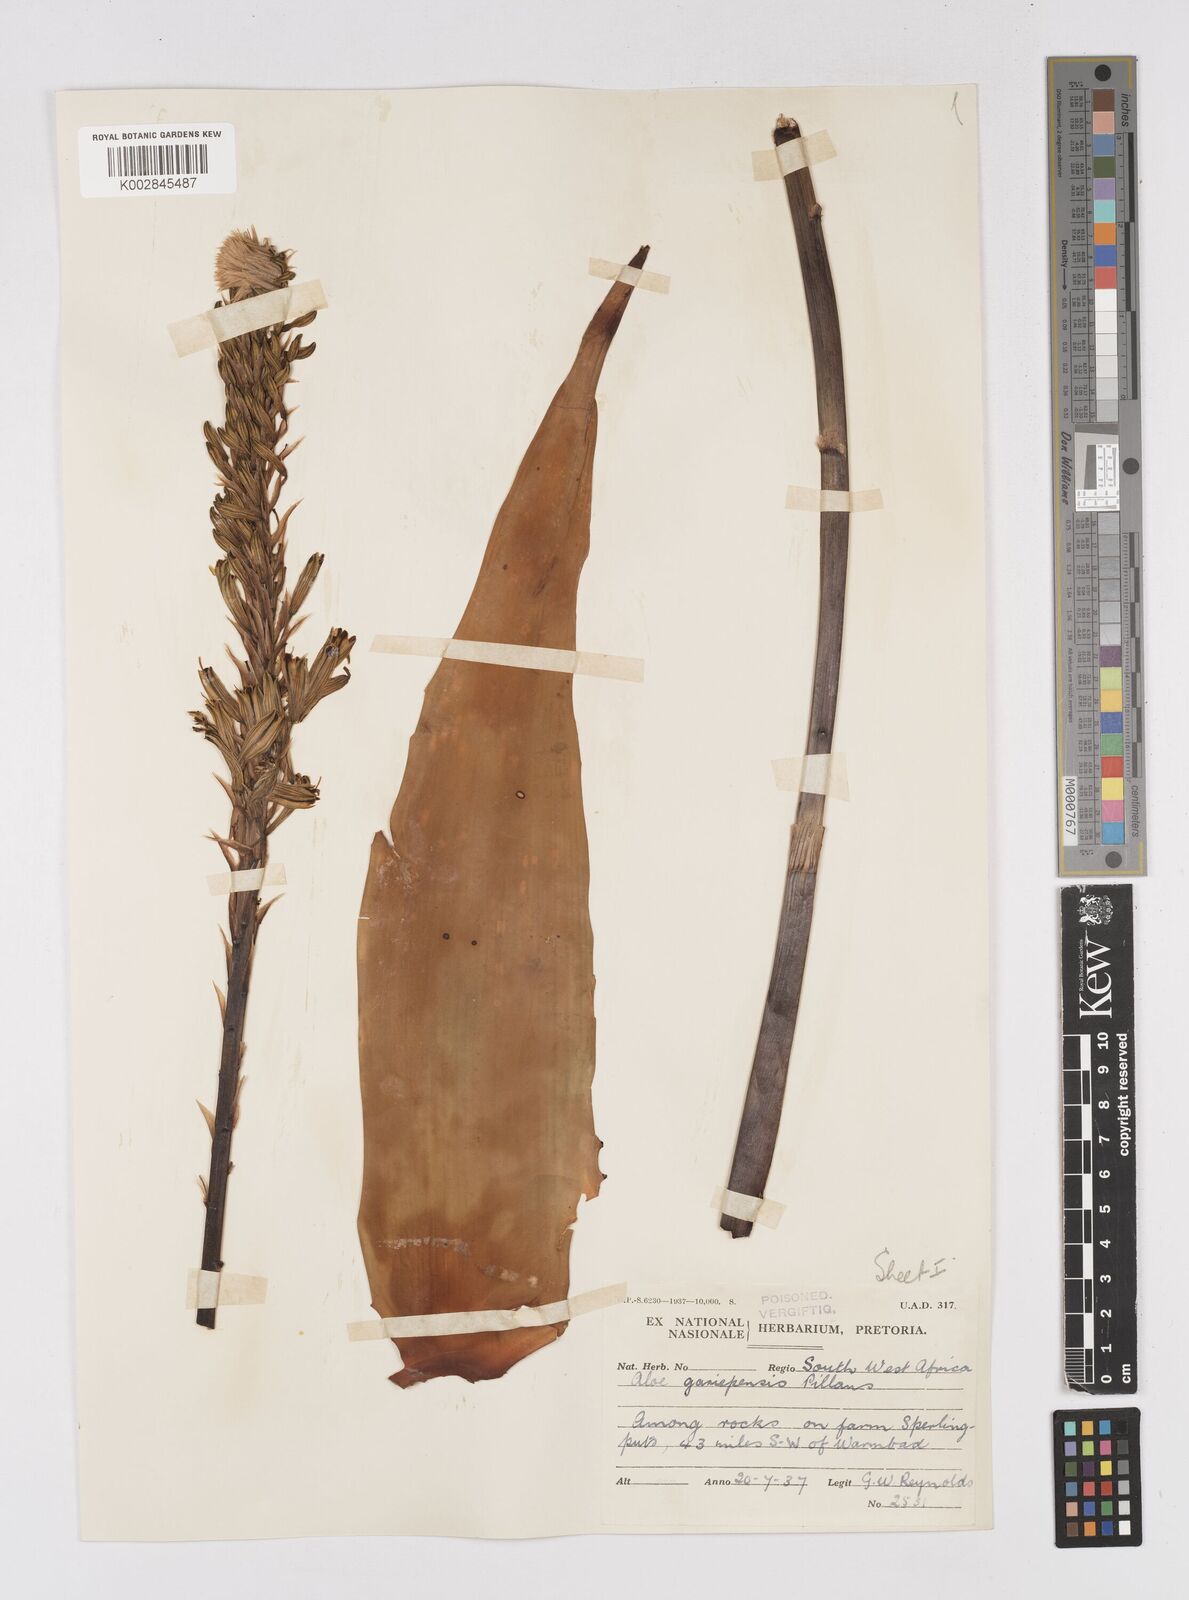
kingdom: Plantae
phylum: Tracheophyta
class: Liliopsida
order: Asparagales
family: Asphodelaceae
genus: Aloe
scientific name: Aloe gariepensis
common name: Orange river aloe
